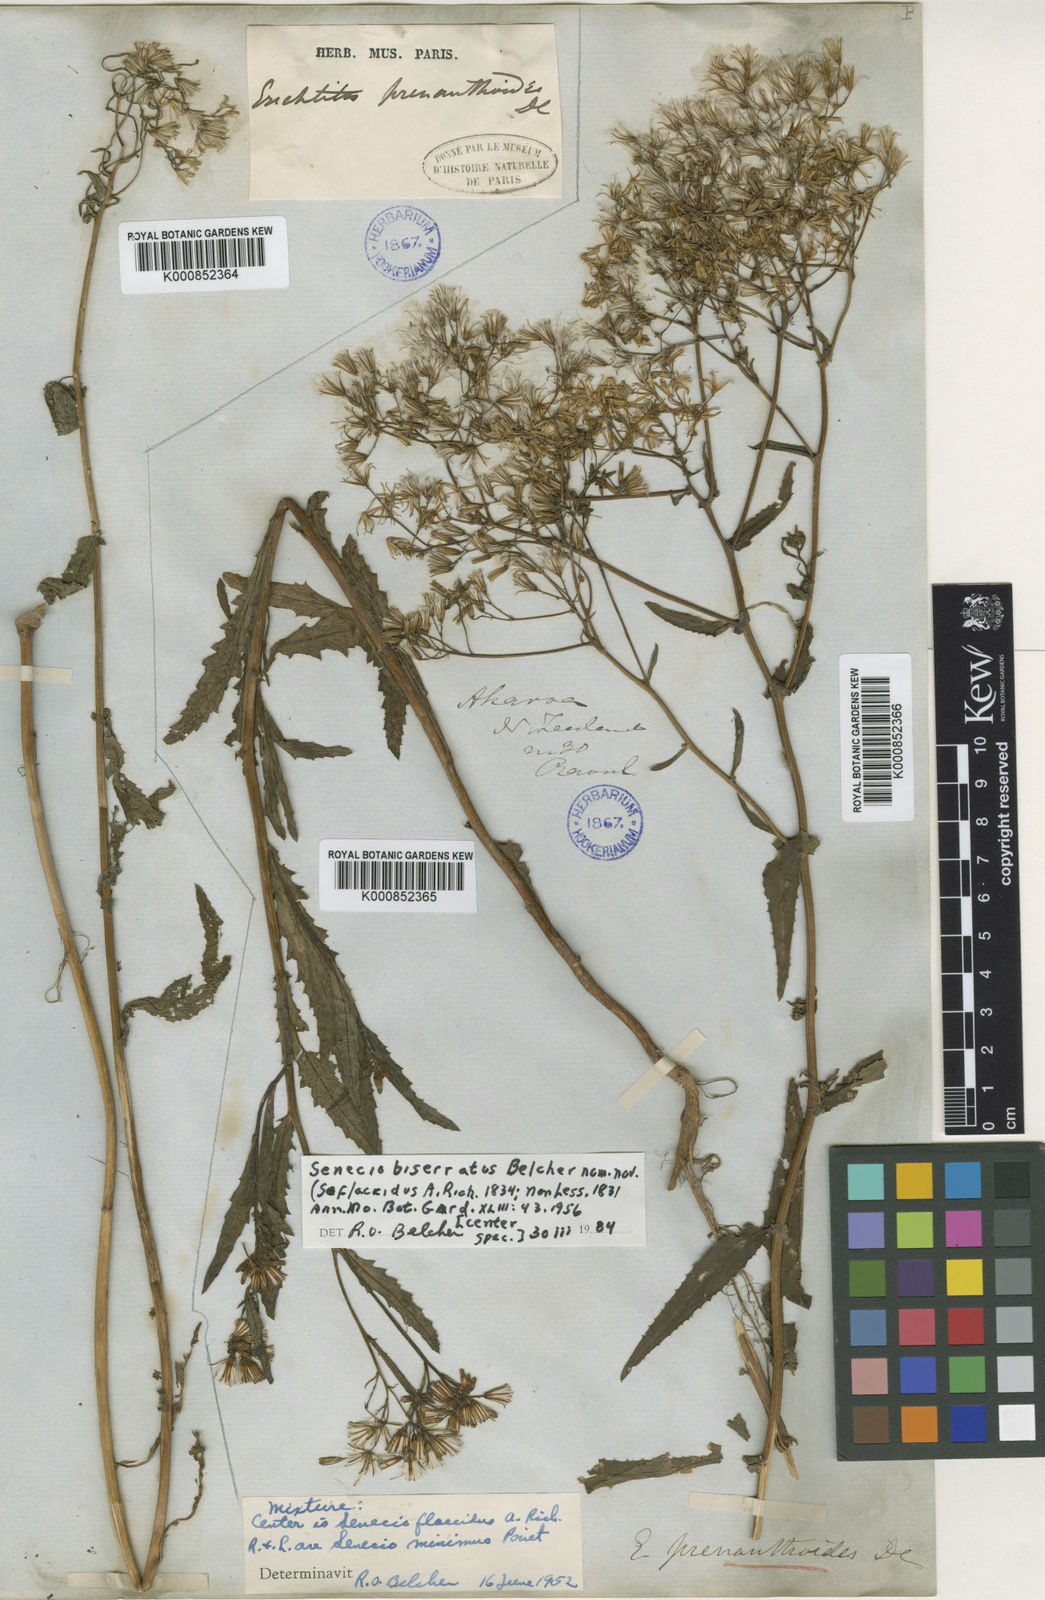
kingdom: Plantae
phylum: Tracheophyta
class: Magnoliopsida
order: Asterales
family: Asteraceae
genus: Senecio
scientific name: Senecio biserratus
